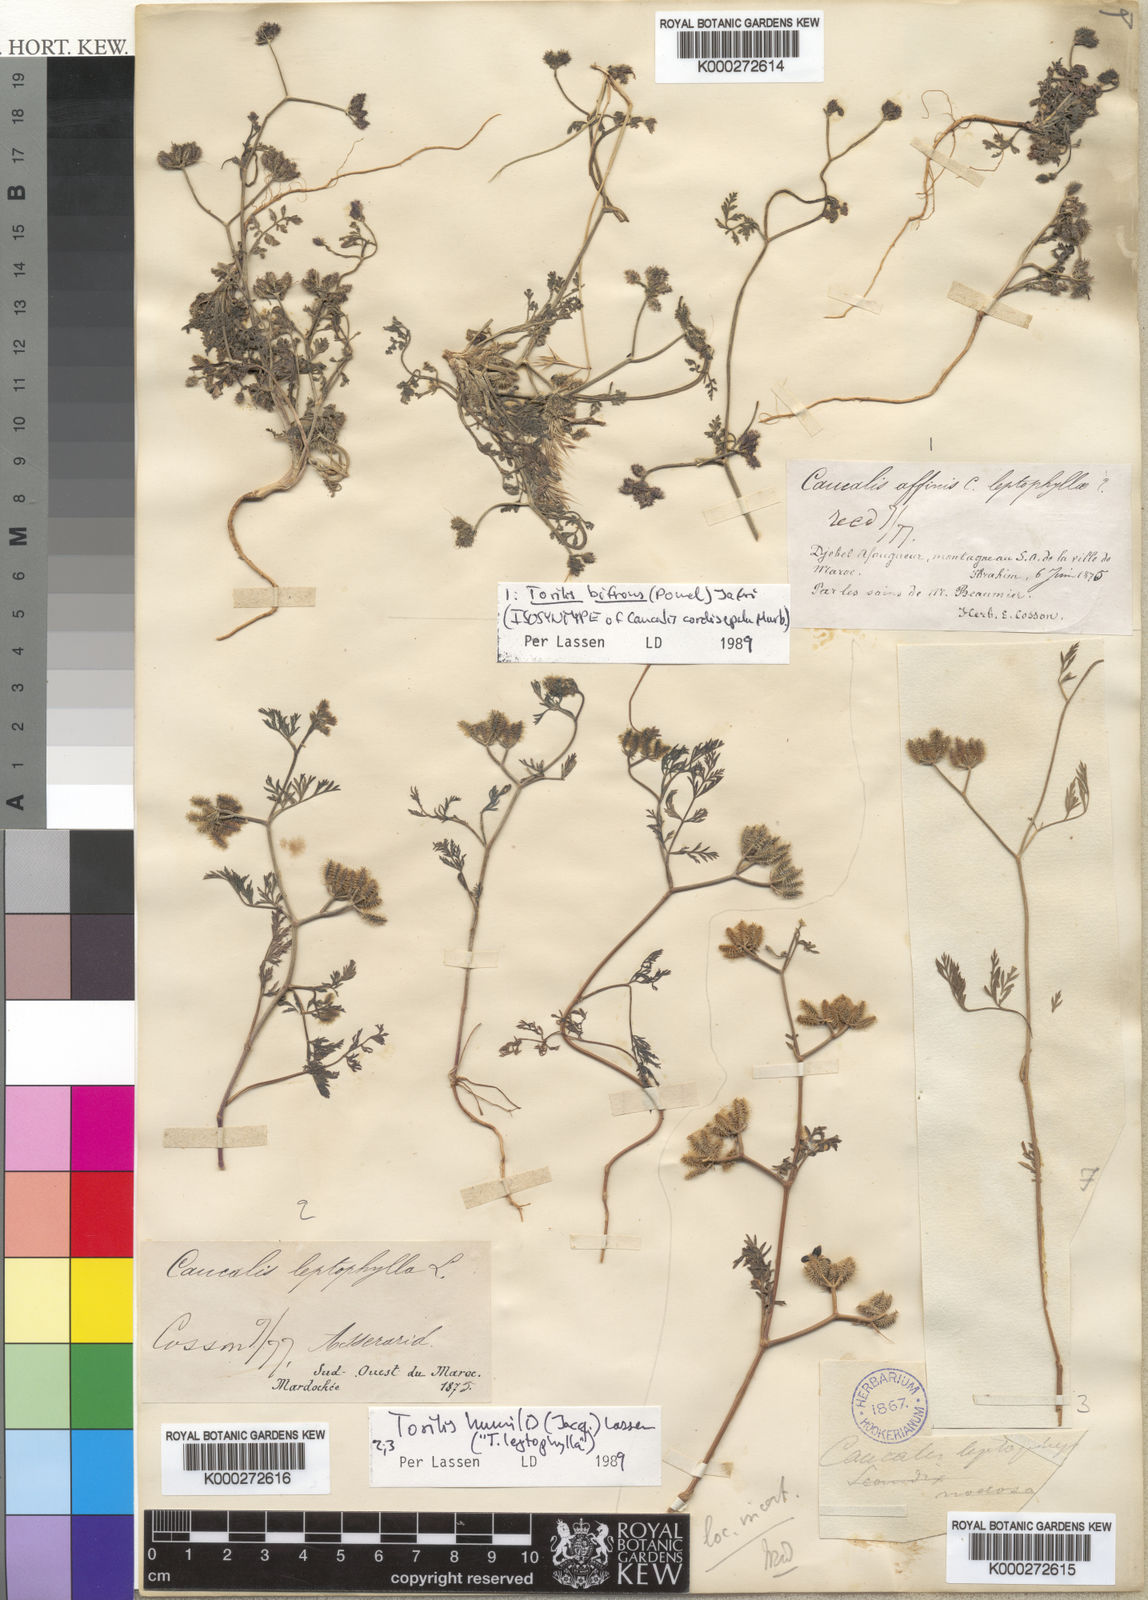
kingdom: Plantae
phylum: Tracheophyta
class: Magnoliopsida
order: Apiales
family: Apiaceae
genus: Torilis
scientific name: Torilis elongata
